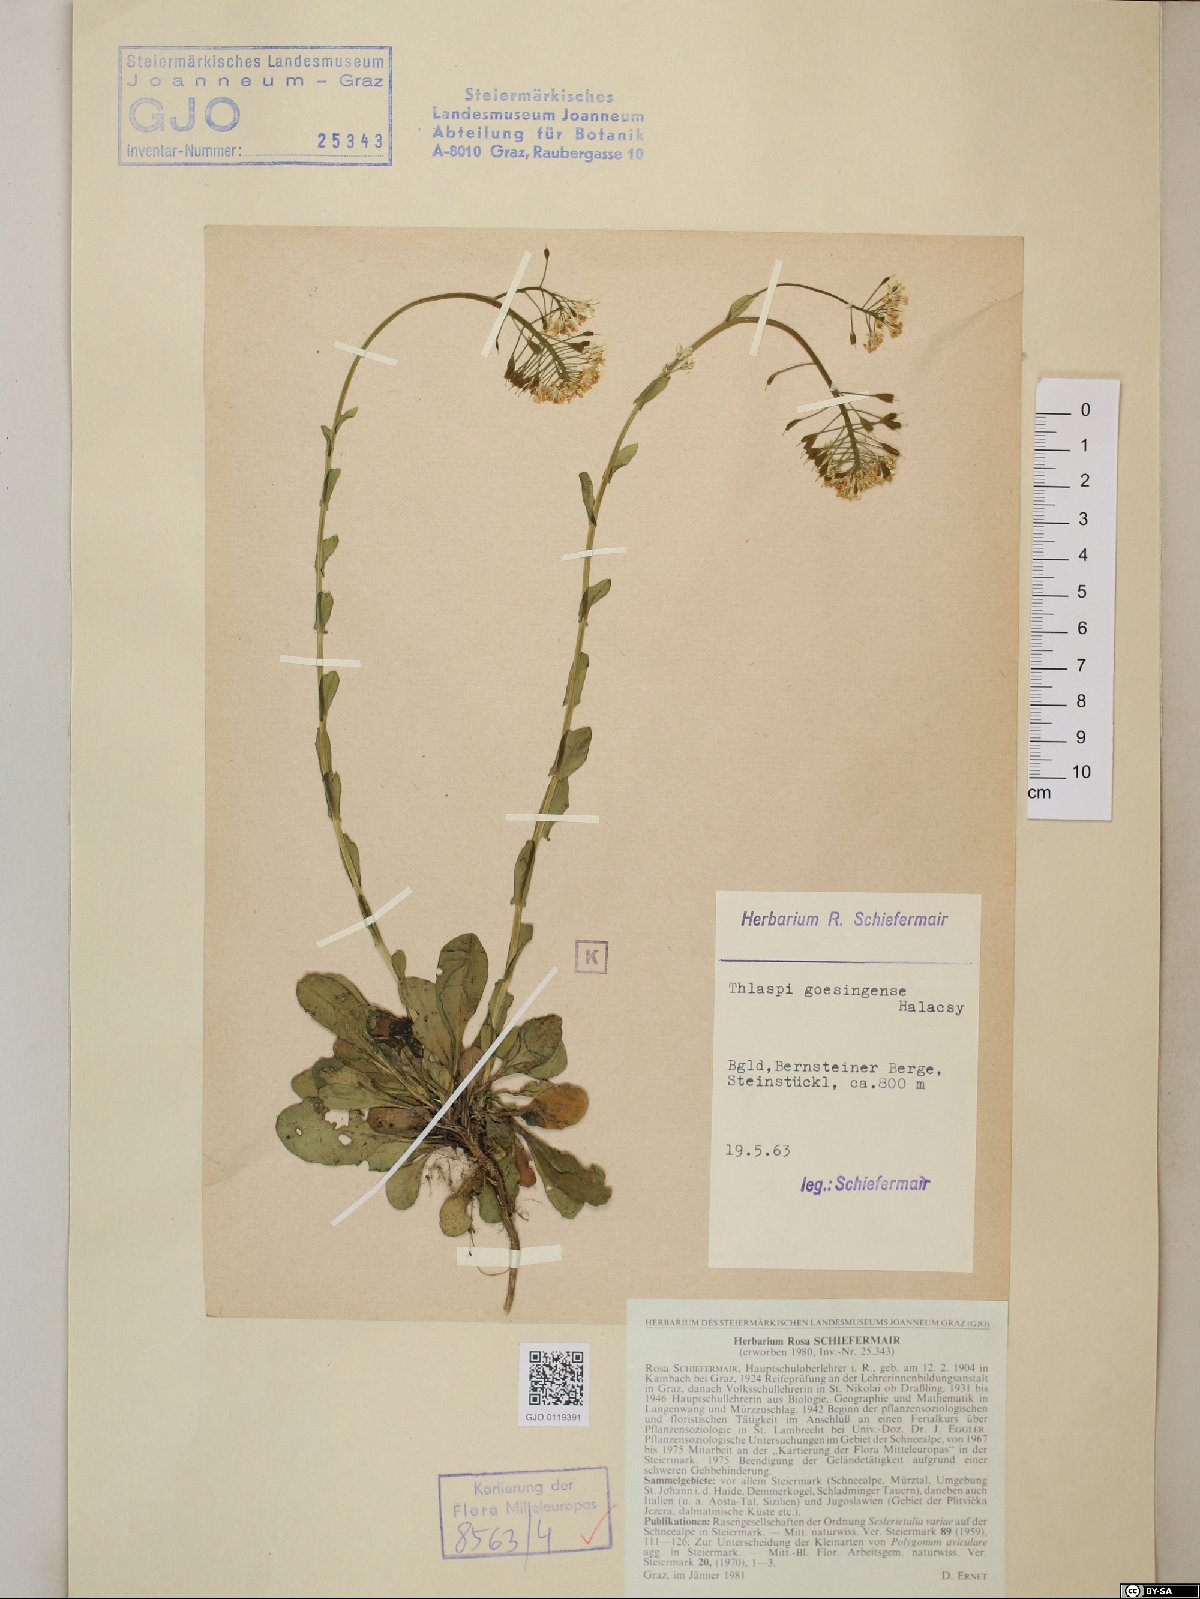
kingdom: Plantae
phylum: Tracheophyta
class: Magnoliopsida
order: Brassicales
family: Brassicaceae
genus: Noccaea
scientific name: Noccaea goesingensis
